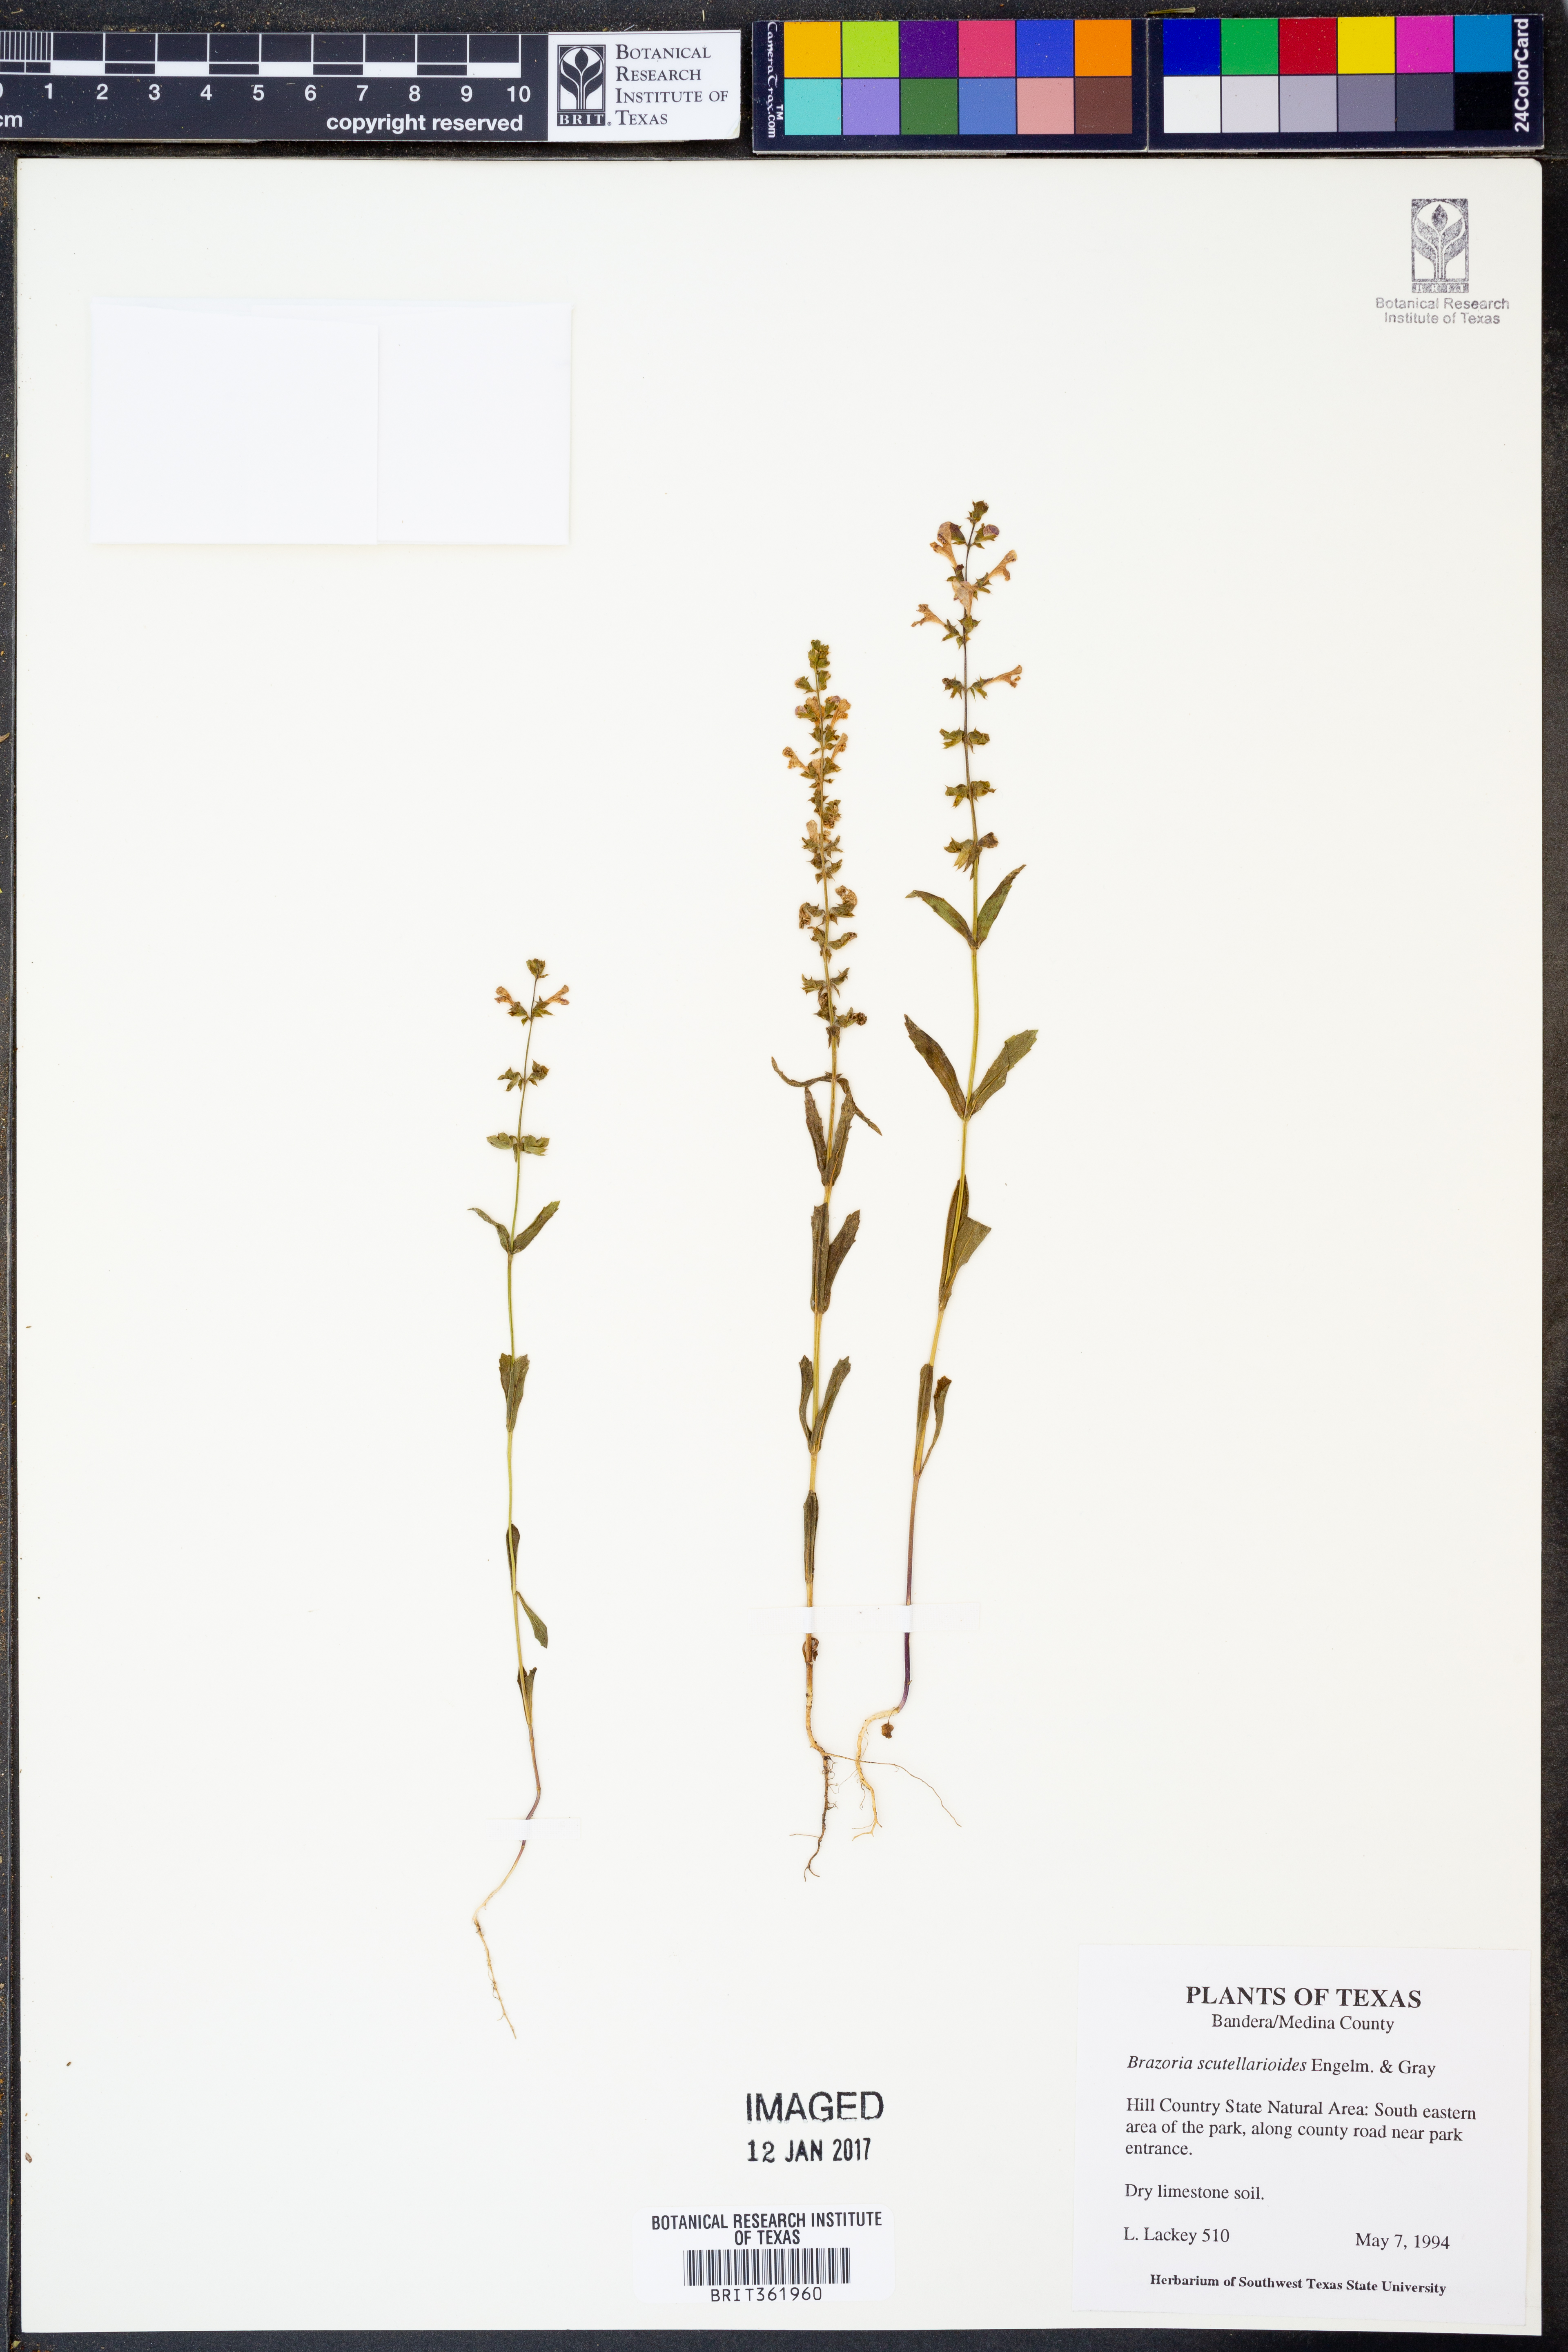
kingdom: Plantae
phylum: Tracheophyta
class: Magnoliopsida
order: Lamiales
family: Lamiaceae
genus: Warnockia
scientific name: Warnockia scutellarioides
